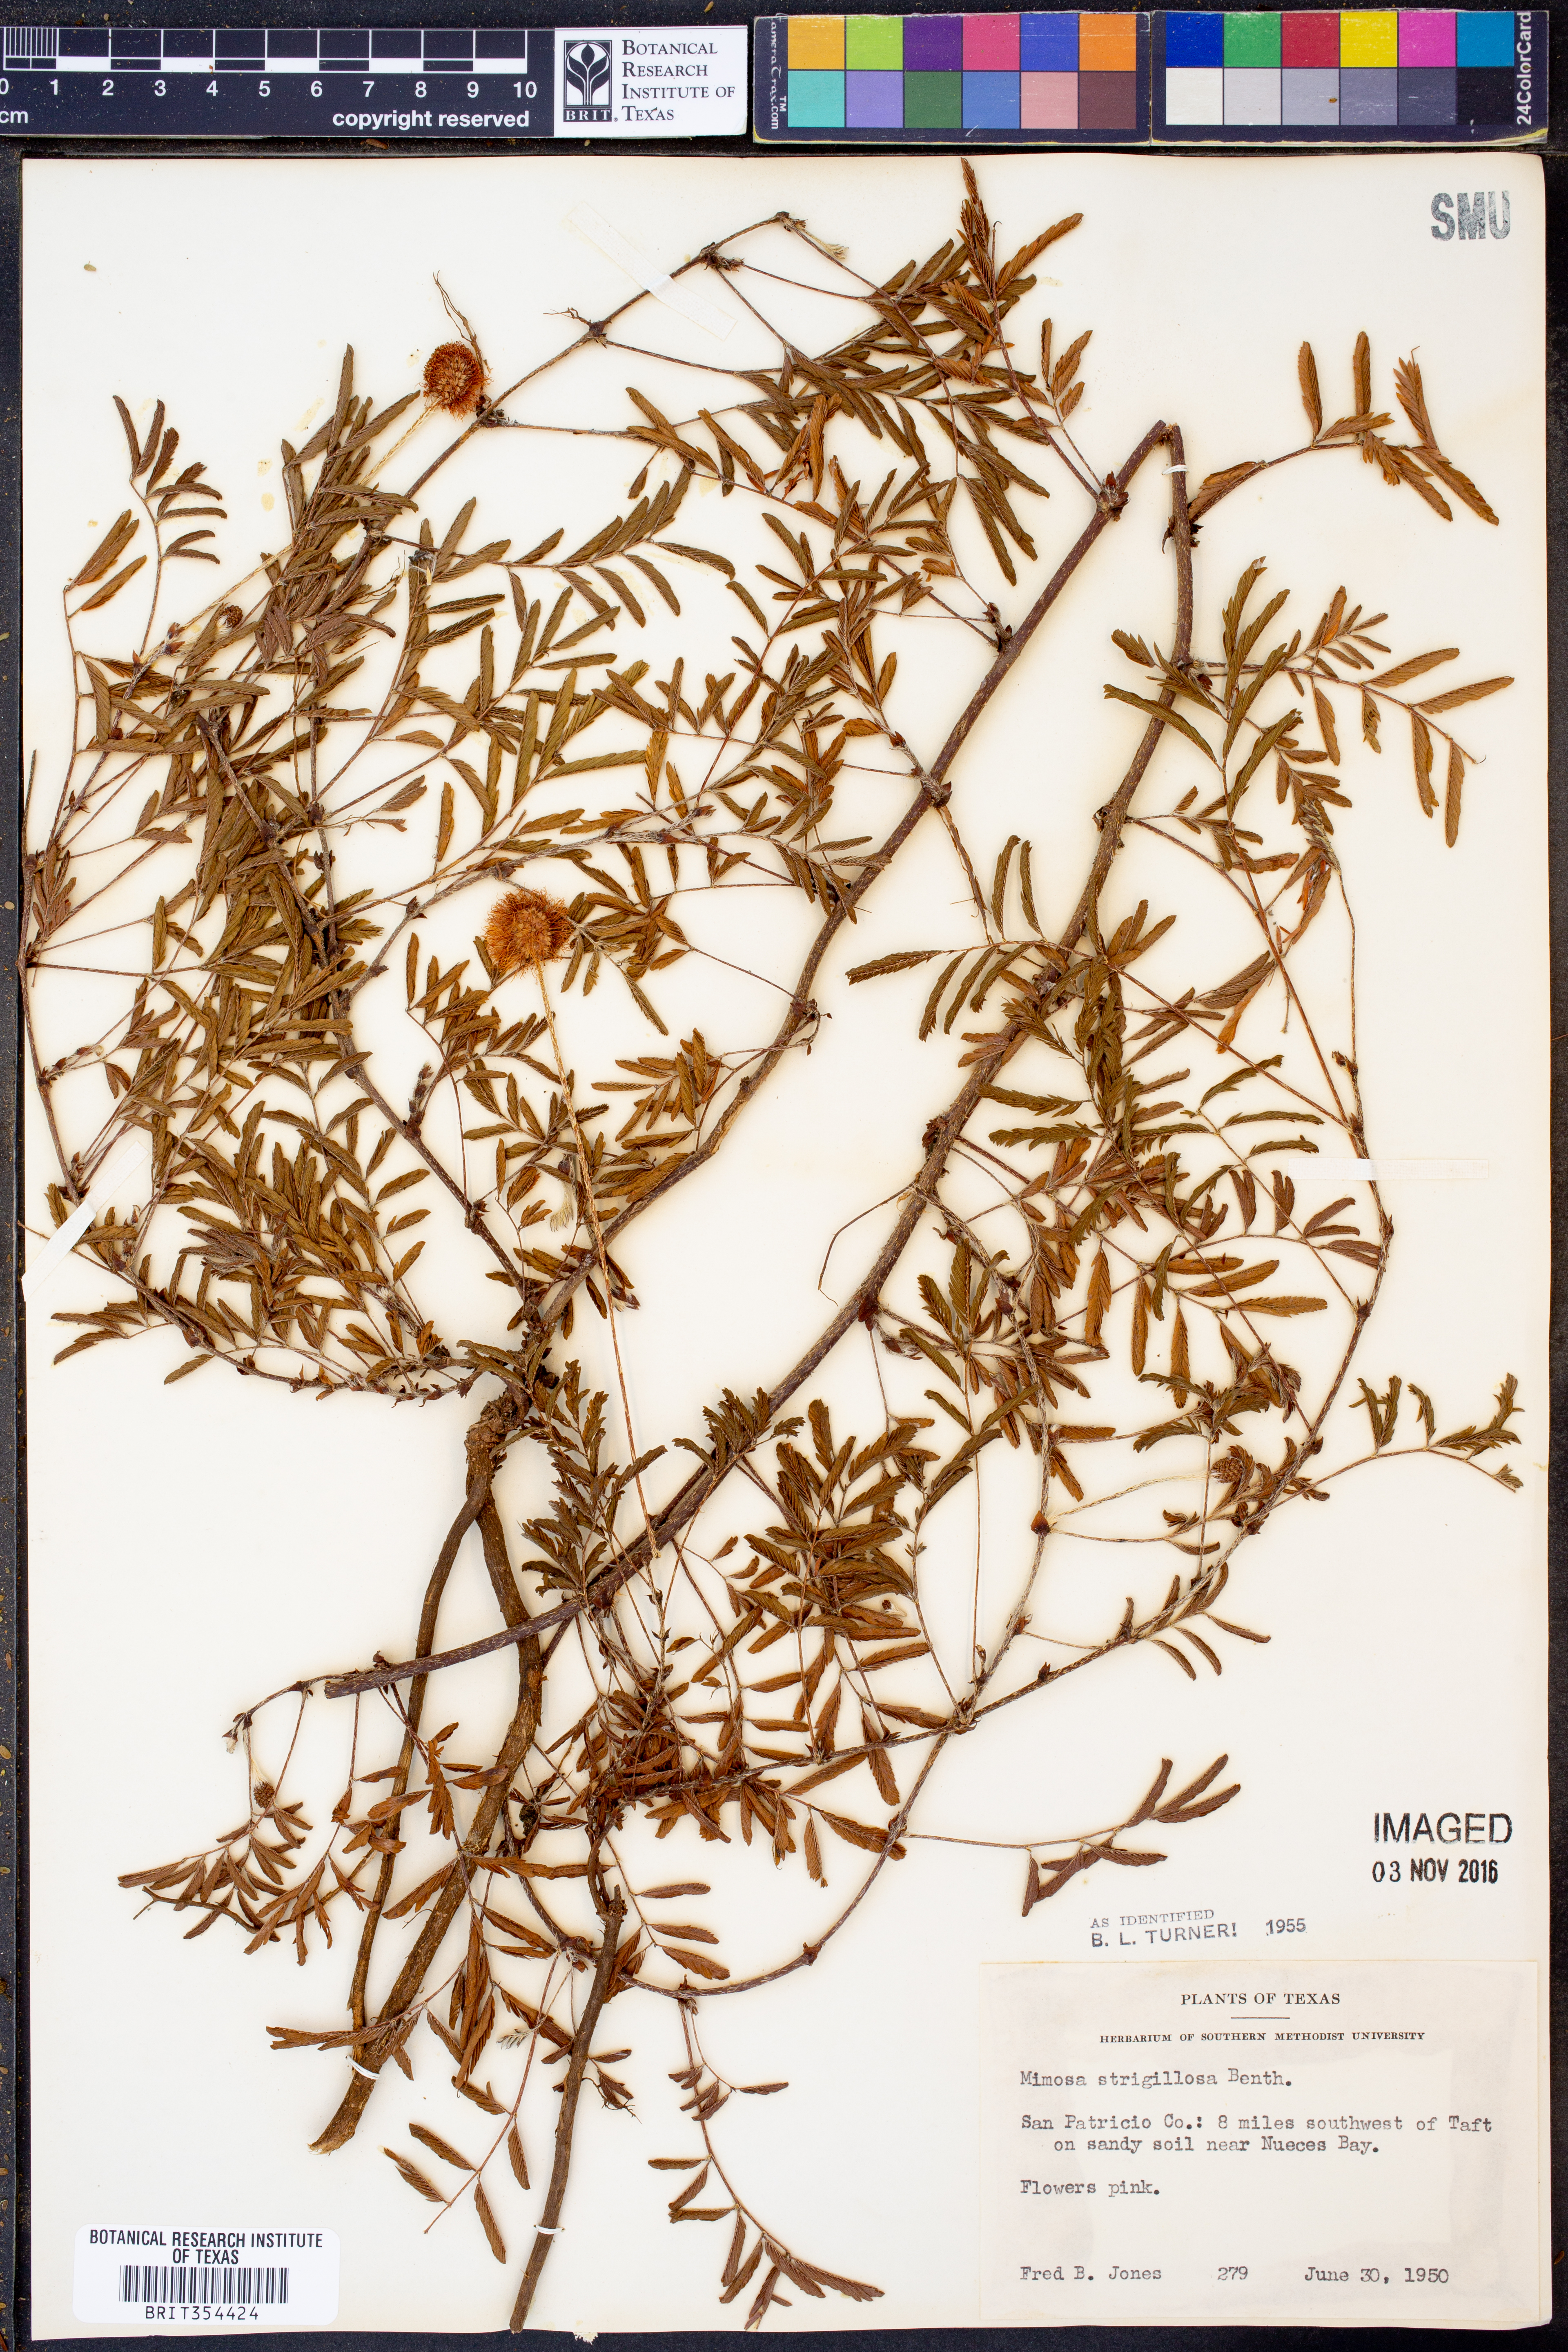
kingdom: Plantae
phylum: Tracheophyta
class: Magnoliopsida
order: Fabales
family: Fabaceae
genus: Mimosa
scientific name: Mimosa strigillosa
